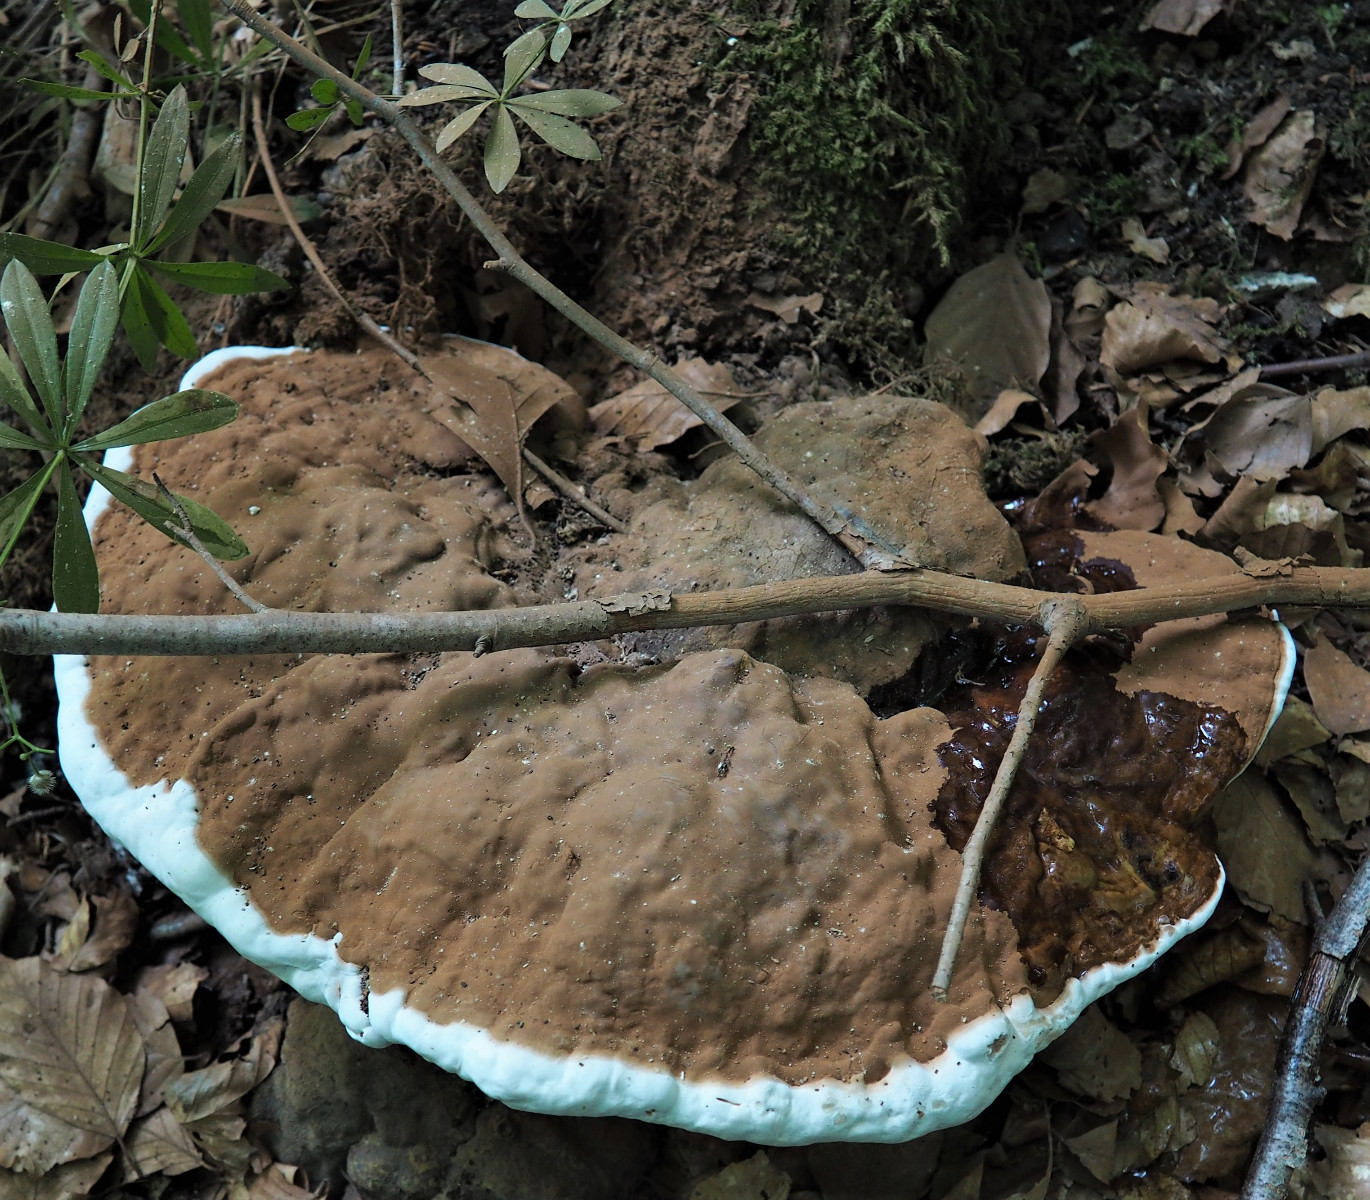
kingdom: Fungi
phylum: Basidiomycota
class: Agaricomycetes
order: Polyporales
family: Polyporaceae
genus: Ganoderma
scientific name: Ganoderma applanatum
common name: flad lakporesvamp
